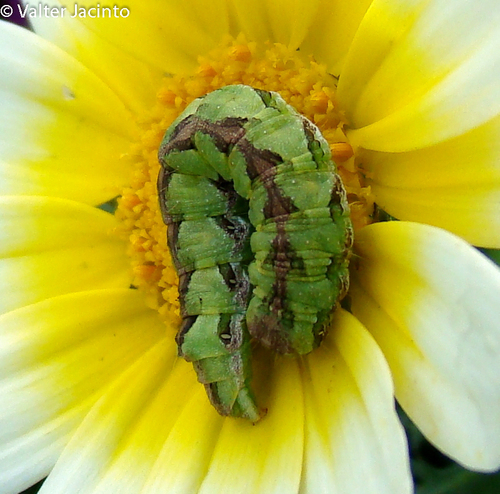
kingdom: Animalia
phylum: Arthropoda
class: Insecta
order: Lepidoptera
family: Noctuidae
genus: Cucullia
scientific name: Cucullia calendulae
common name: Marigold shark
